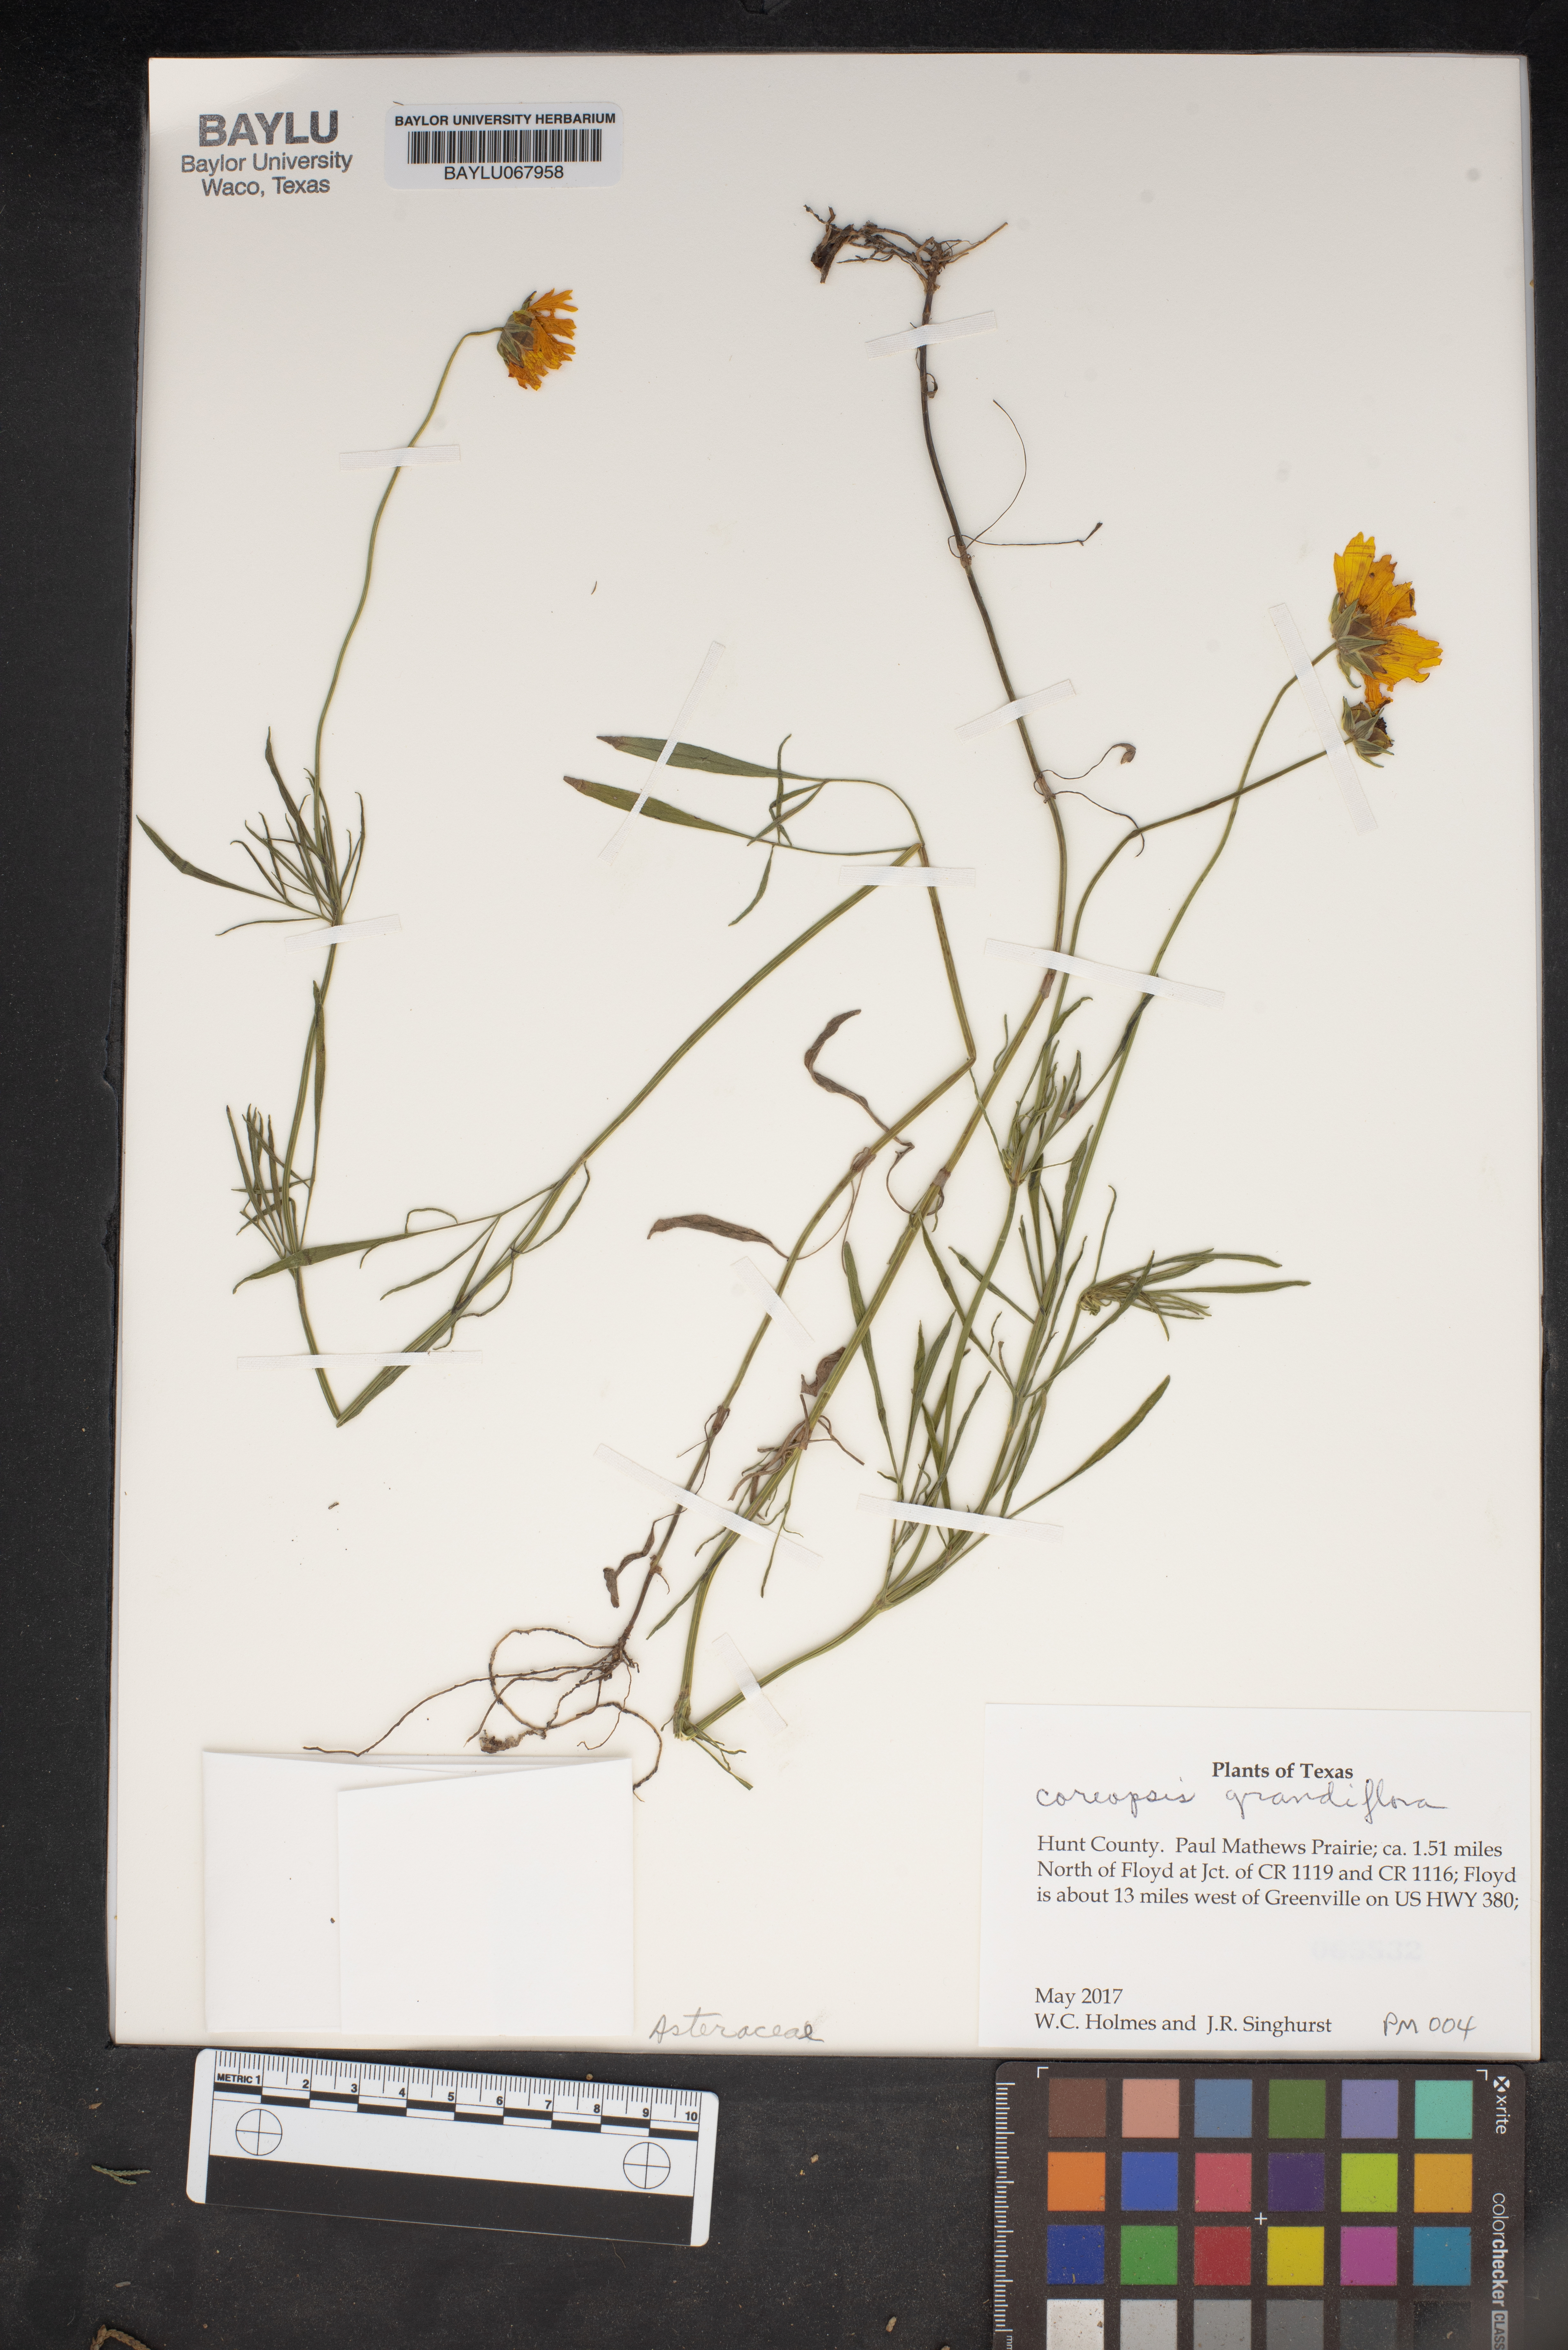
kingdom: Plantae
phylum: Tracheophyta
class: Magnoliopsida
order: Asterales
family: Asteraceae
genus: Coreopsis
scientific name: Coreopsis grandiflora
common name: Large-flowered tickseed
